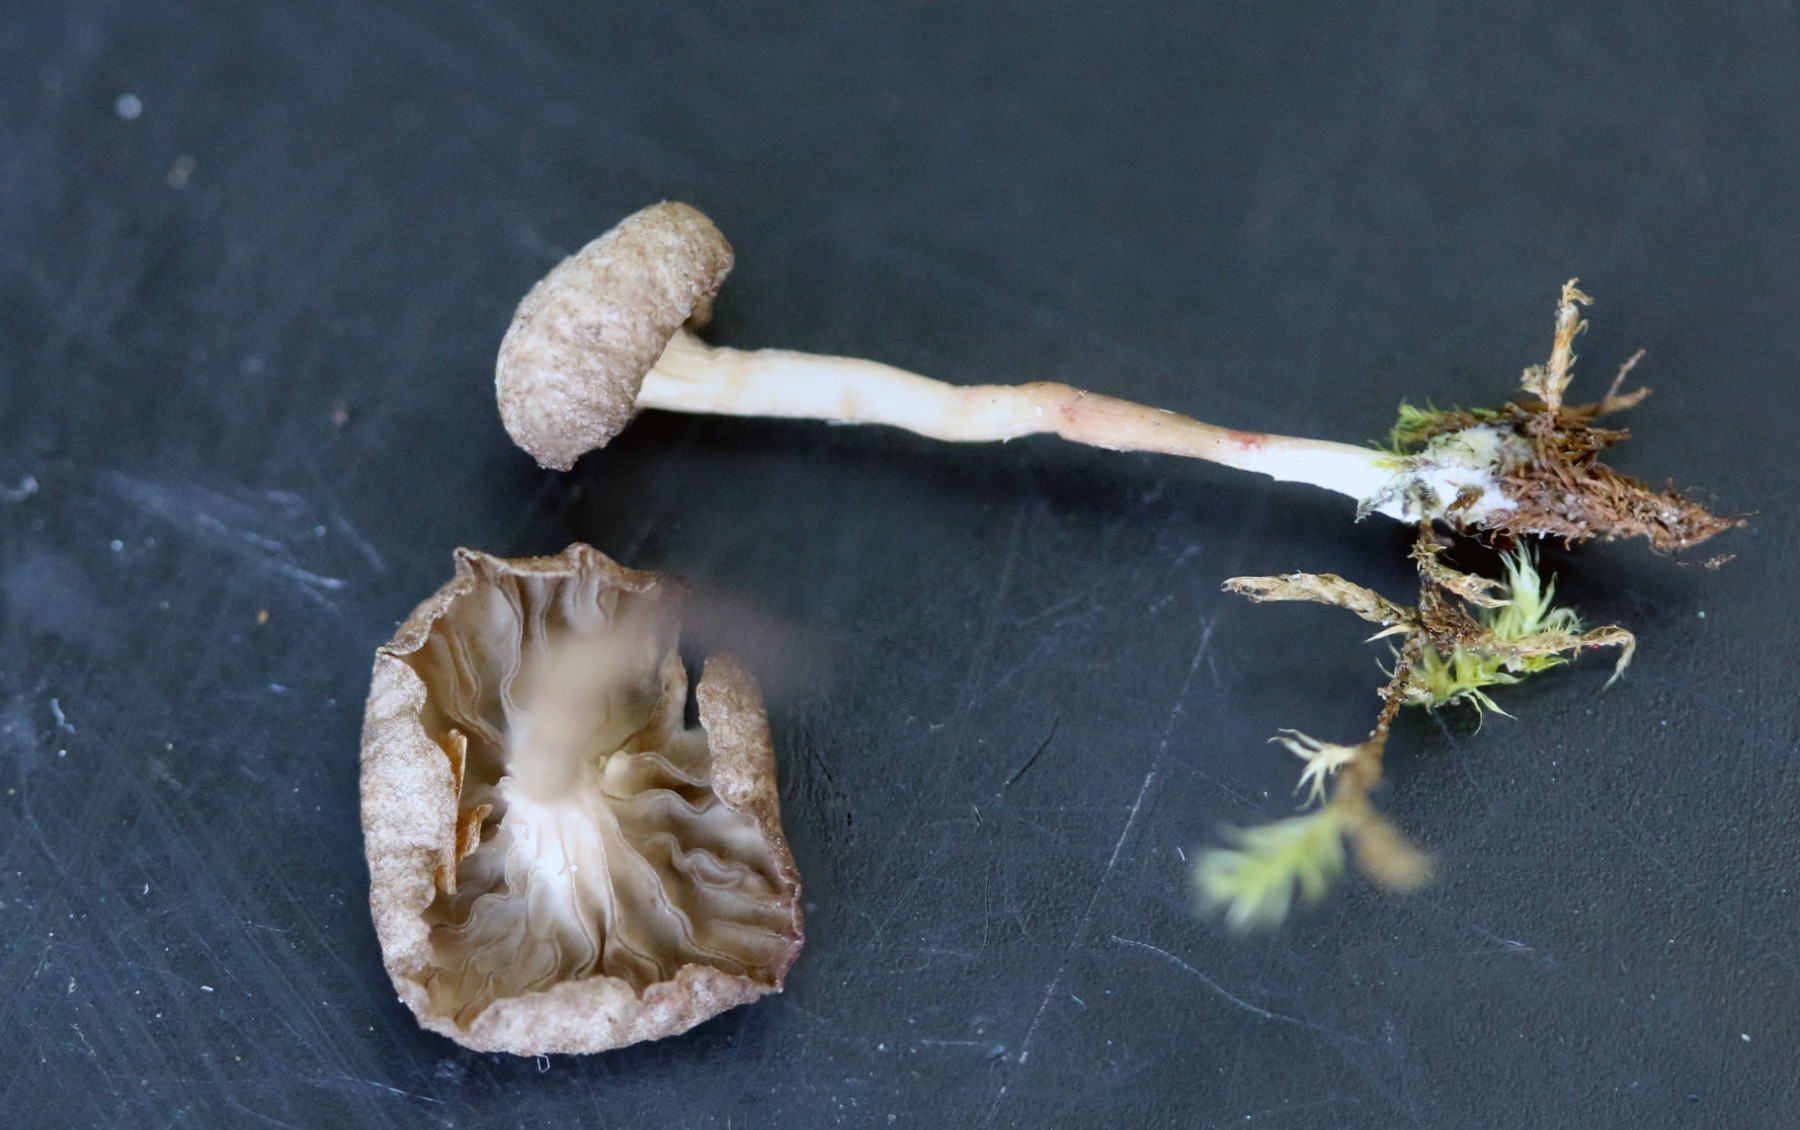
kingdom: Fungi
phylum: Basidiomycota
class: Agaricomycetes
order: Agaricales
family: Hygrophoraceae
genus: Arrhenia
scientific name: Arrhenia elegans
